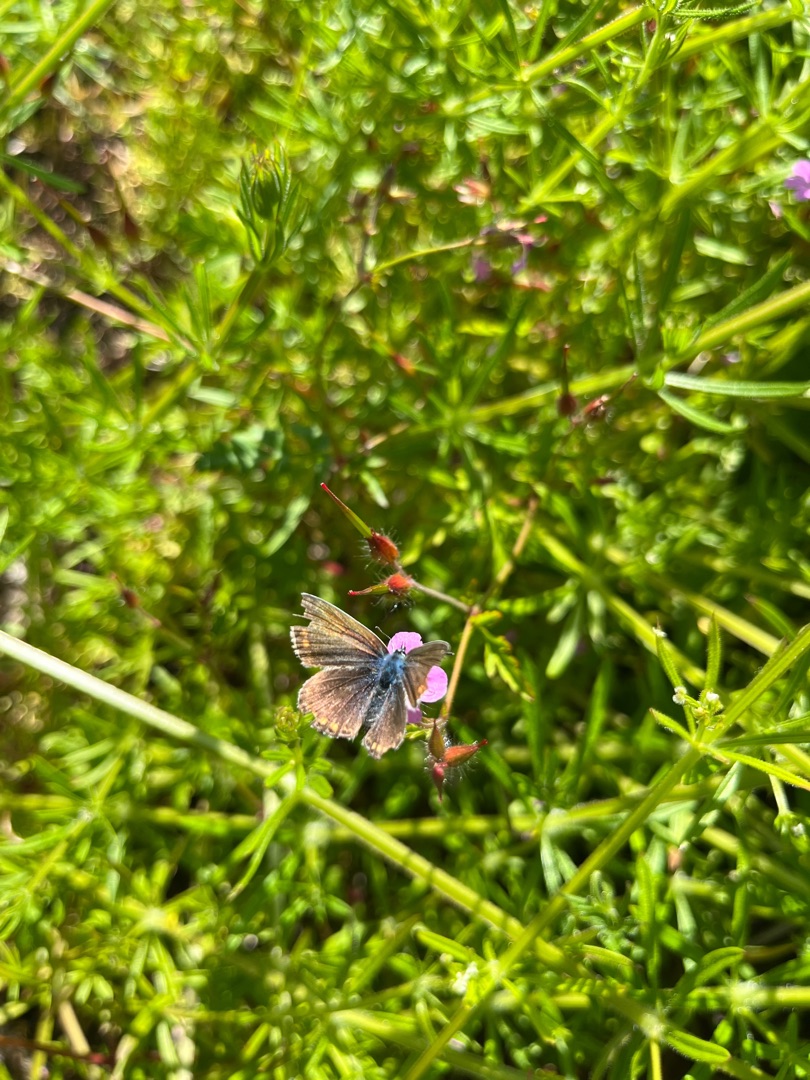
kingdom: Animalia
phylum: Arthropoda
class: Insecta
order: Lepidoptera
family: Lycaenidae
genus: Polyommatus
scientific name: Polyommatus icarus
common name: Almindelig blåfugl
